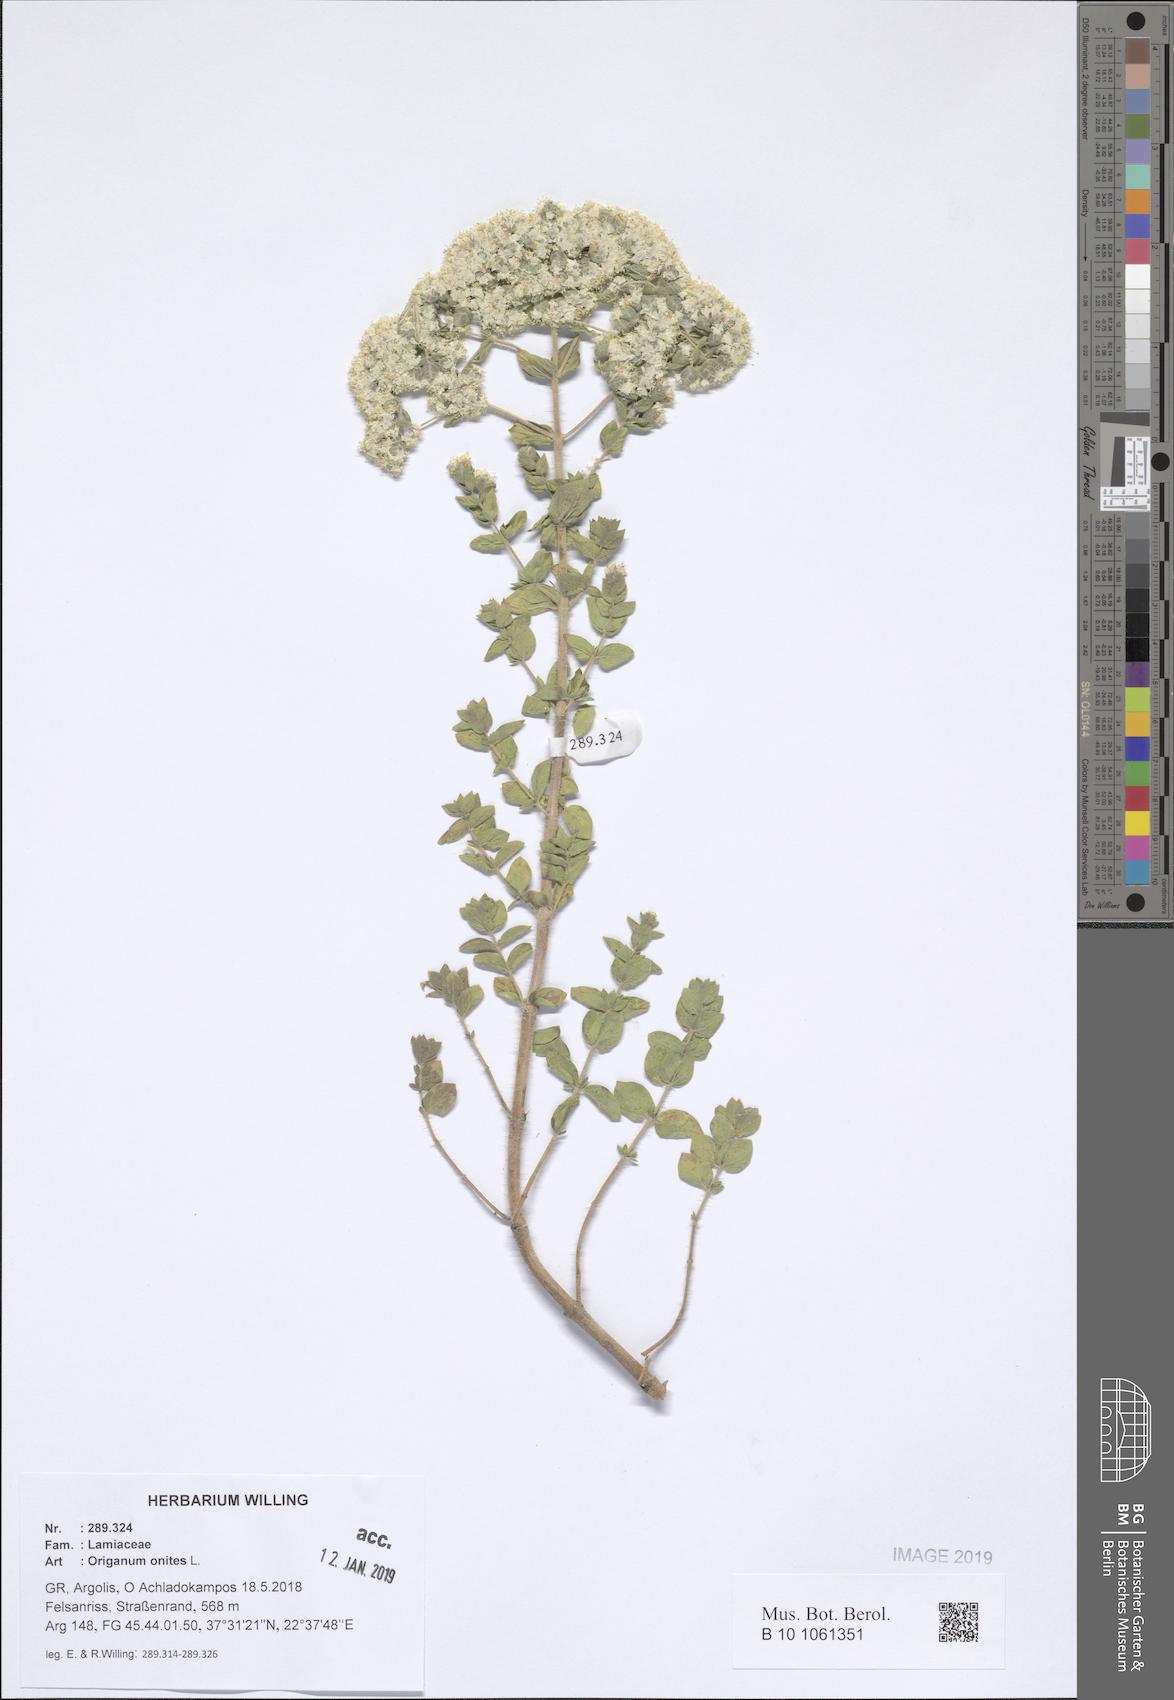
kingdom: Plantae
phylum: Tracheophyta
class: Magnoliopsida
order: Lamiales
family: Lamiaceae
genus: Origanum
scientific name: Origanum onites
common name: Turkish oregano
